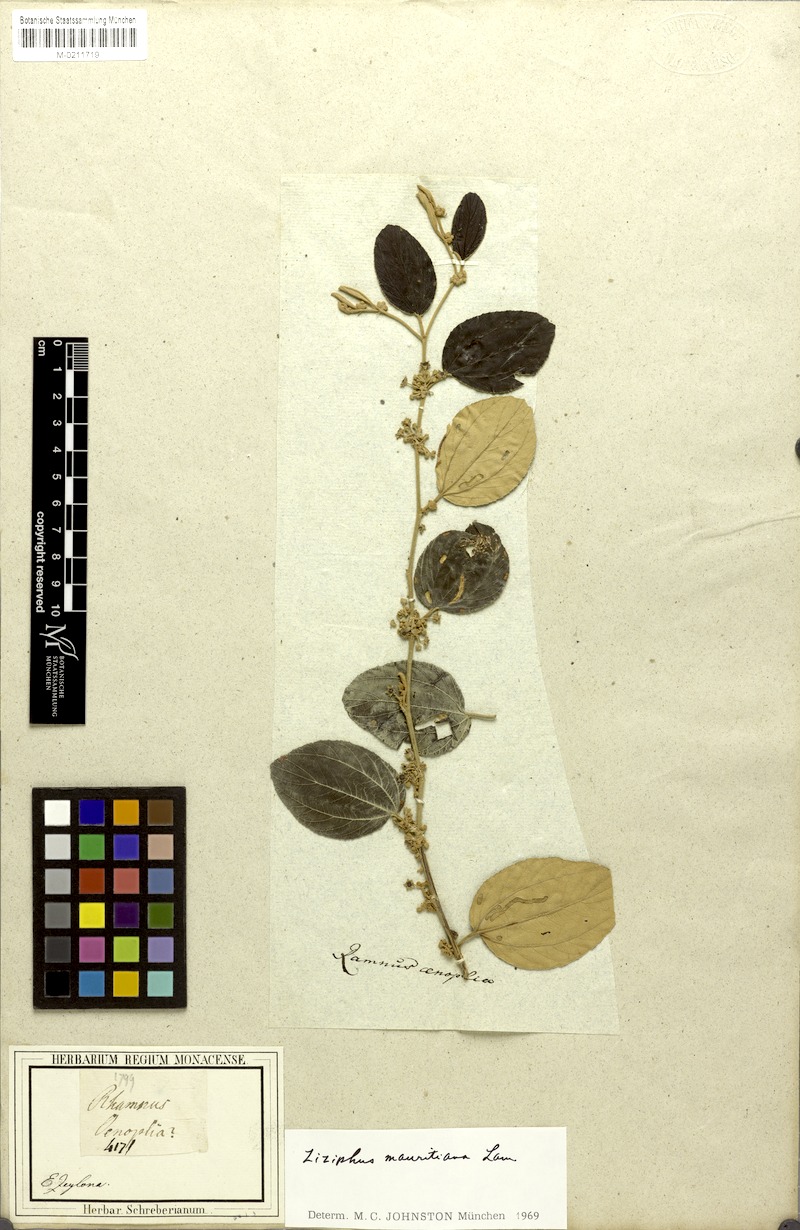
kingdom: Plantae
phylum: Tracheophyta
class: Magnoliopsida
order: Rosales
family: Rhamnaceae
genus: Ziziphus
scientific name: Ziziphus mauritiana
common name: Indian jujube
